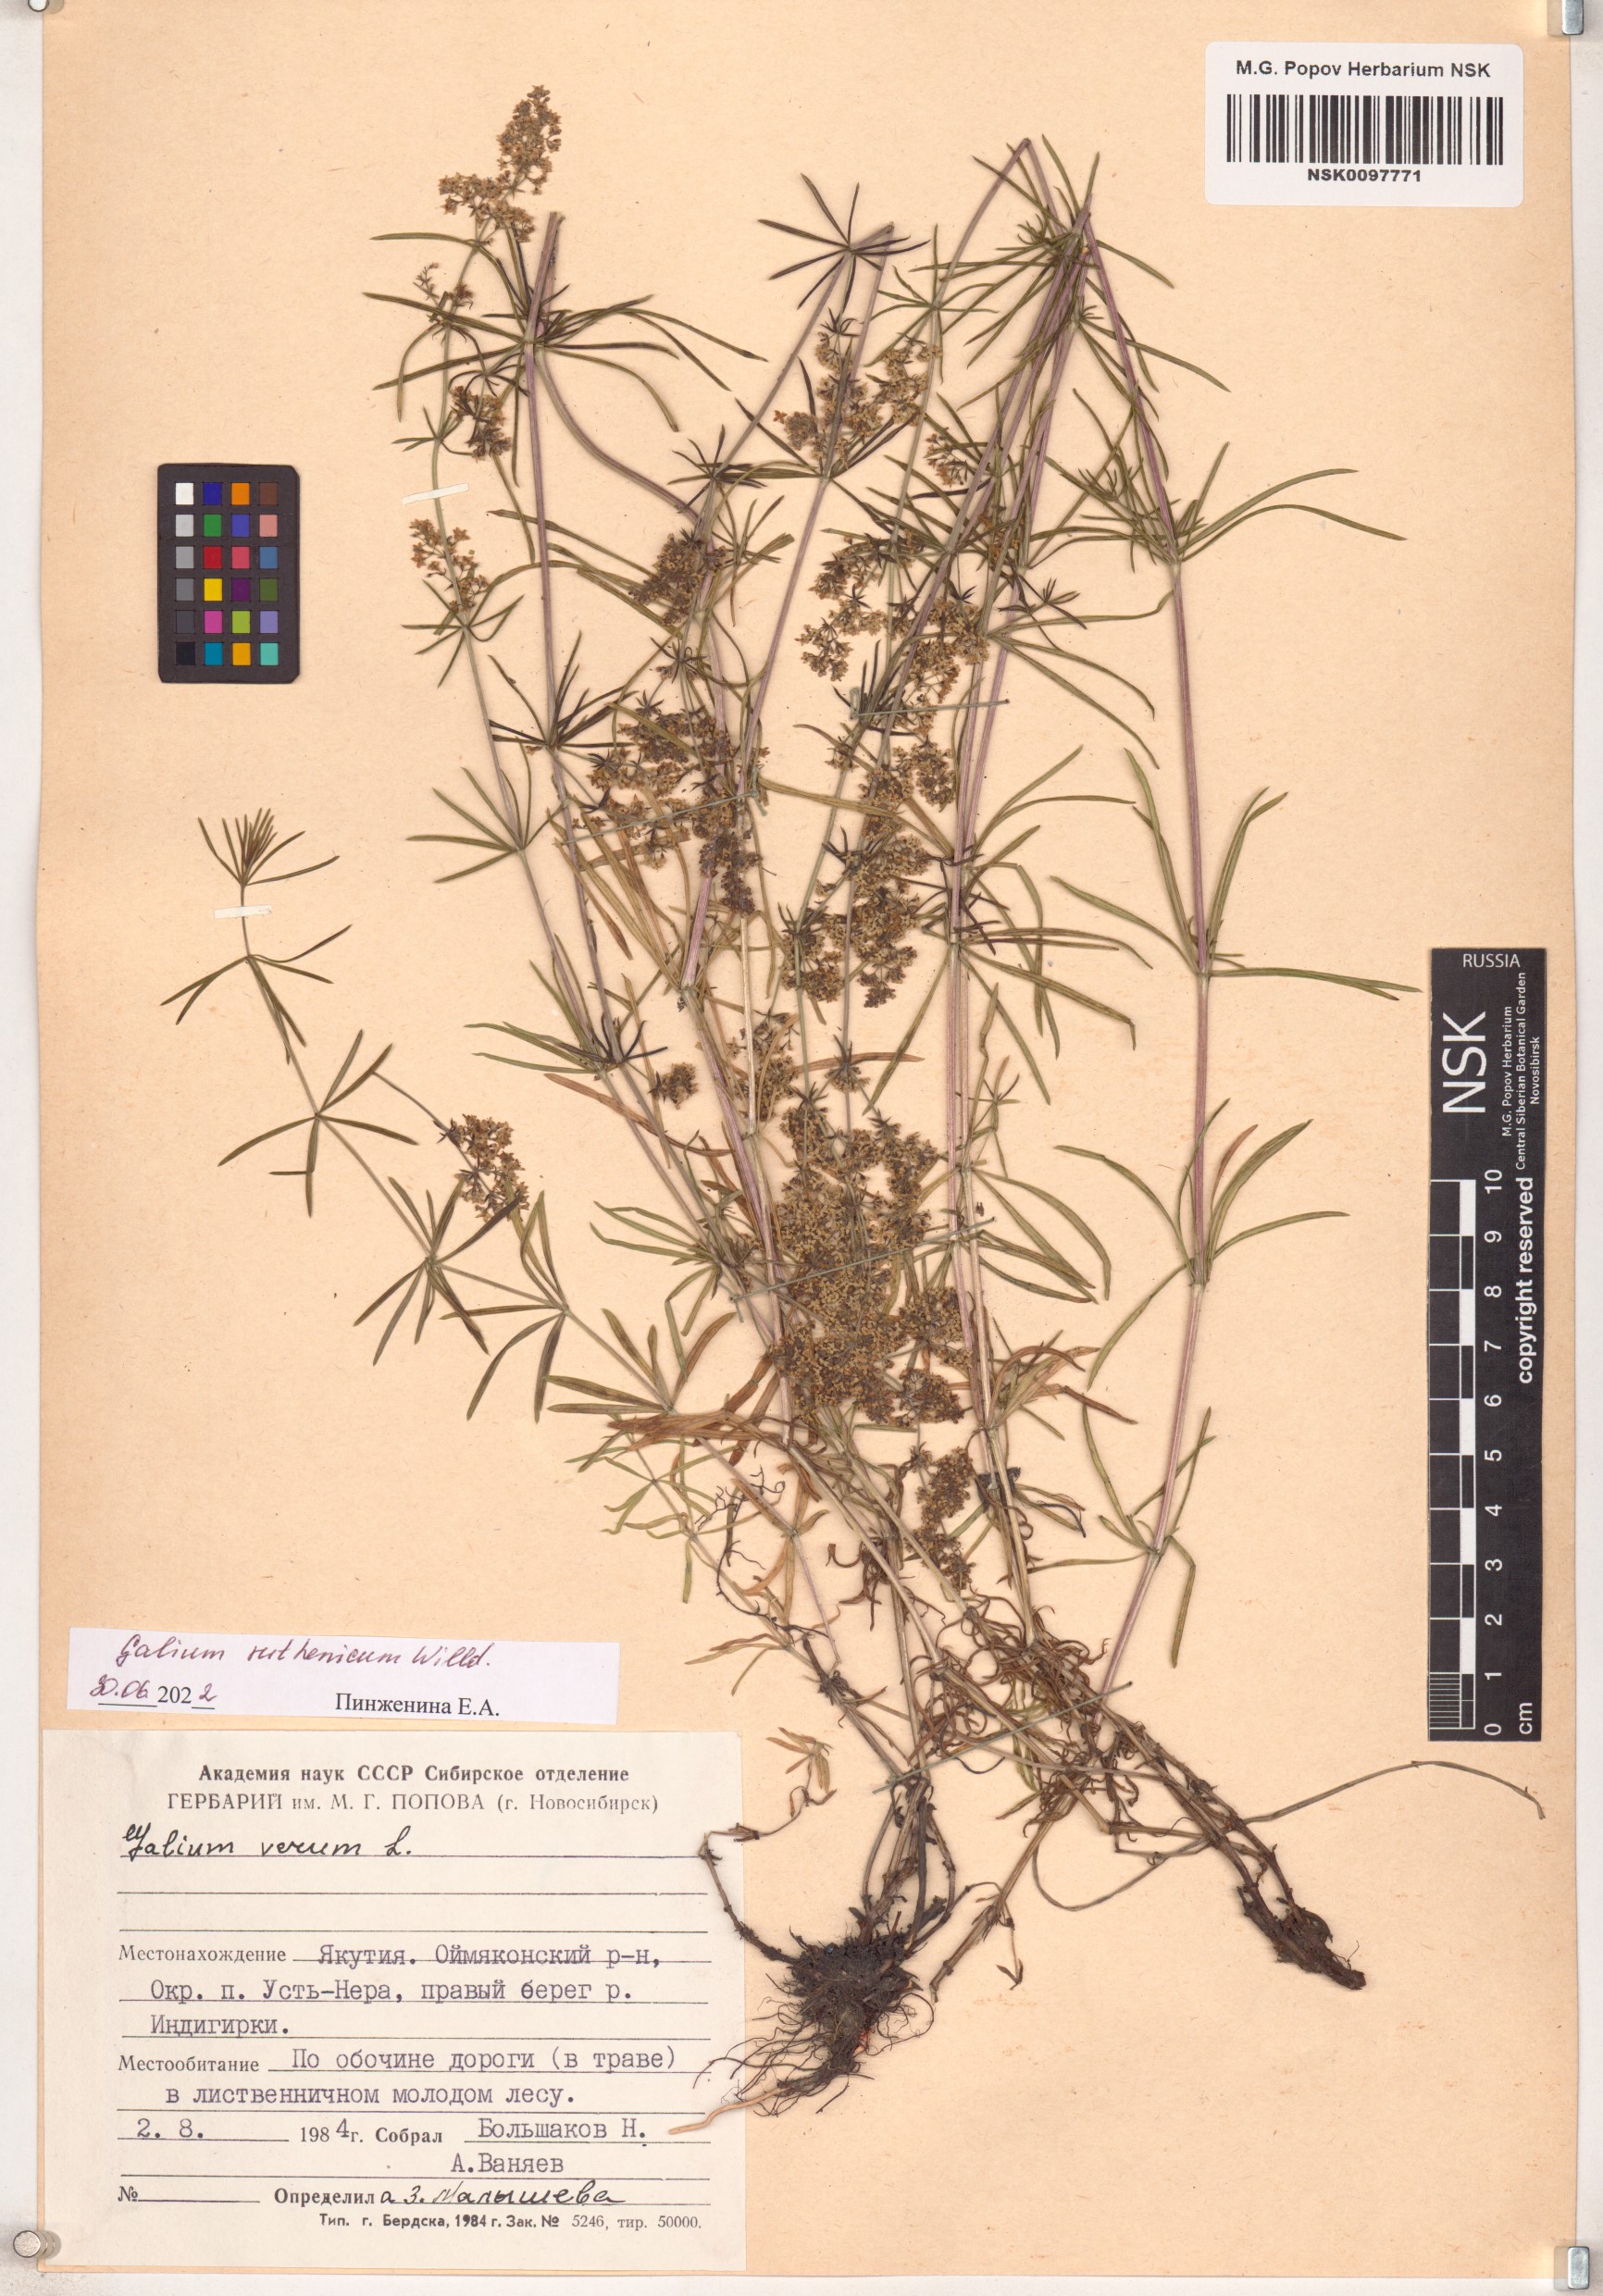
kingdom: Plantae
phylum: Tracheophyta
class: Magnoliopsida
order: Gentianales
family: Rubiaceae
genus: Galium
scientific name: Galium verum
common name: Lady's bedstraw
